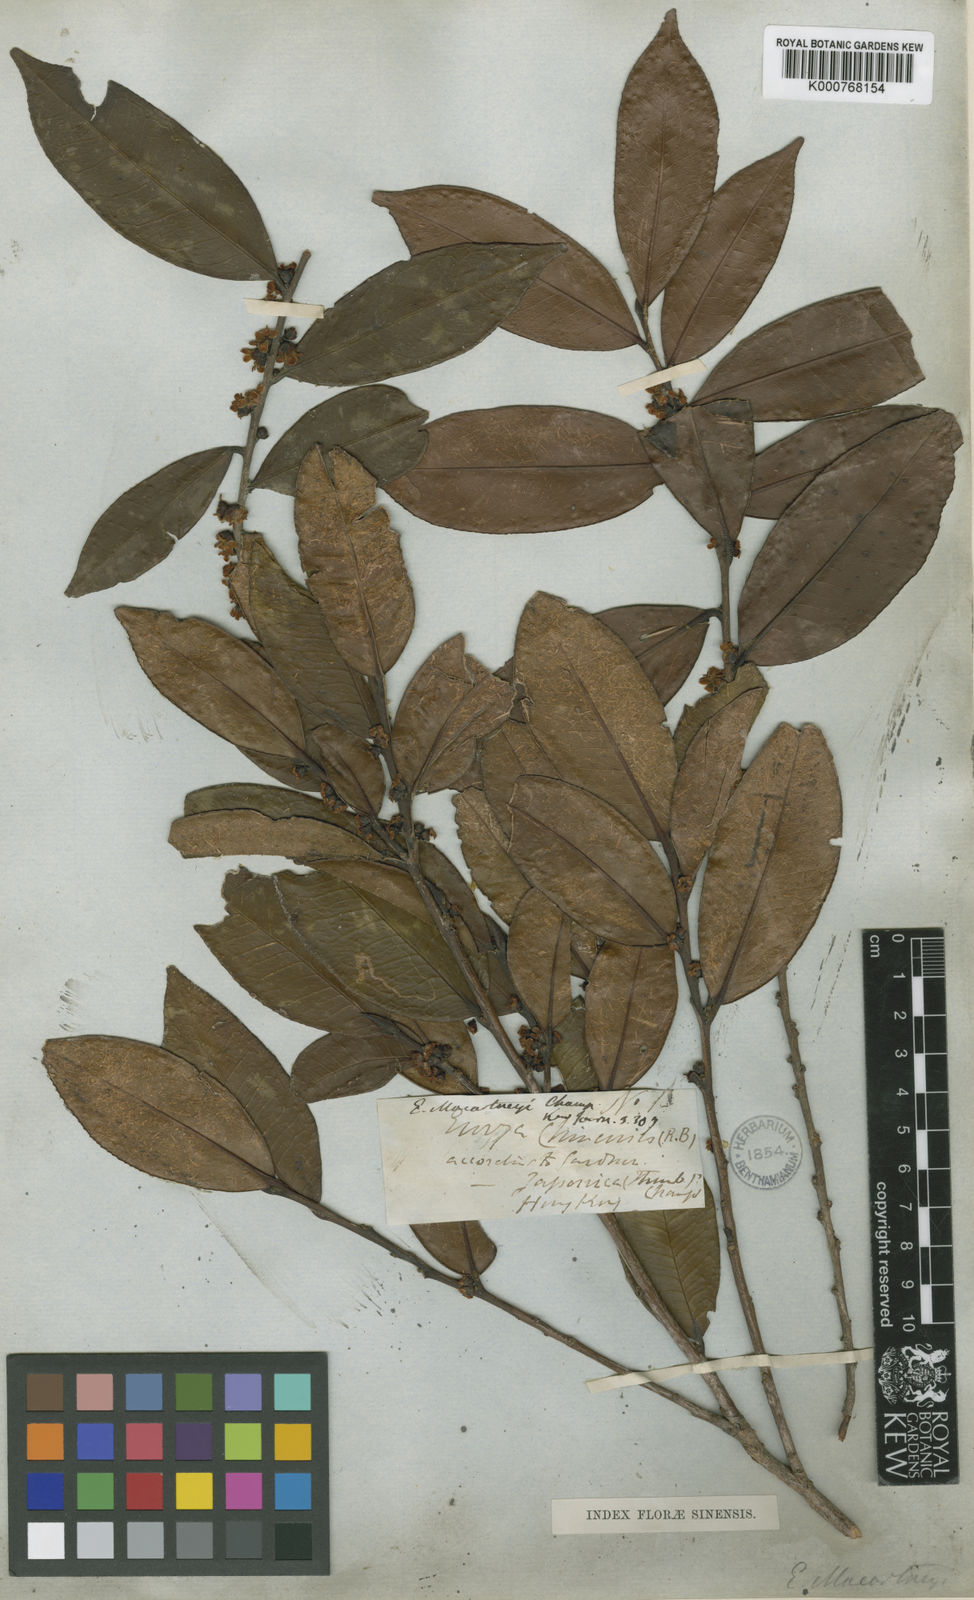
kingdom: Plantae
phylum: Tracheophyta
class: Magnoliopsida
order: Ericales
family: Pentaphylacaceae
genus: Eurya
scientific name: Eurya macartneyi
